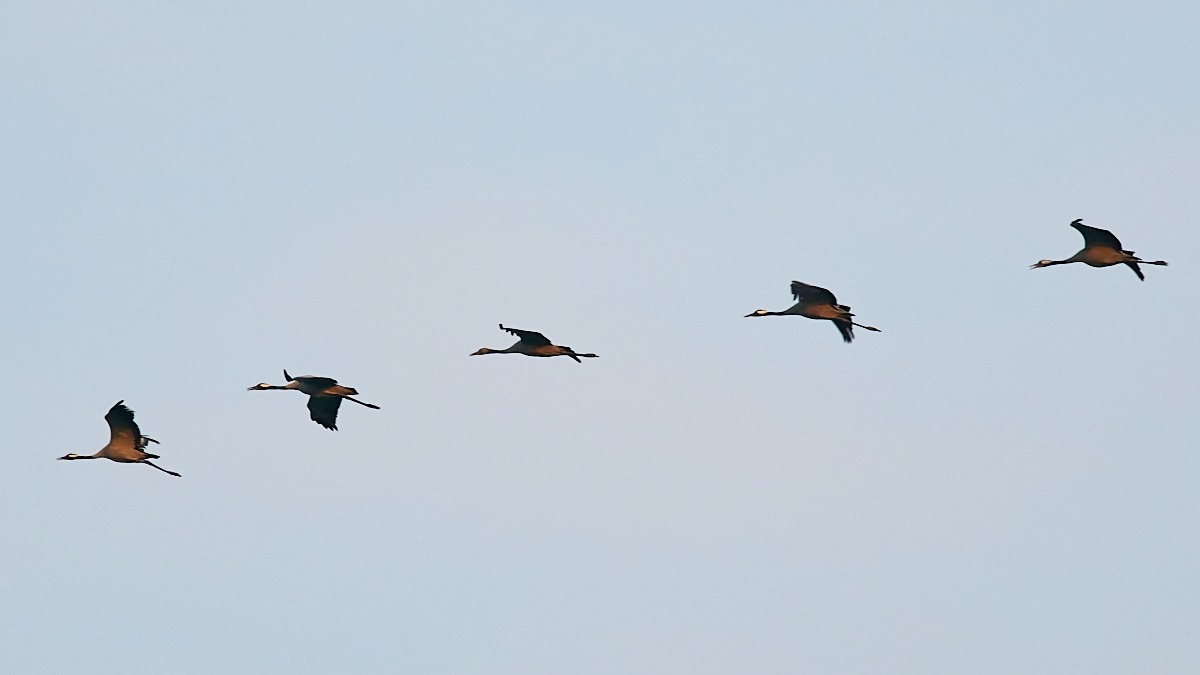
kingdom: Animalia
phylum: Chordata
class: Aves
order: Gruiformes
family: Gruidae
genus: Grus
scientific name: Grus grus
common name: Trane
